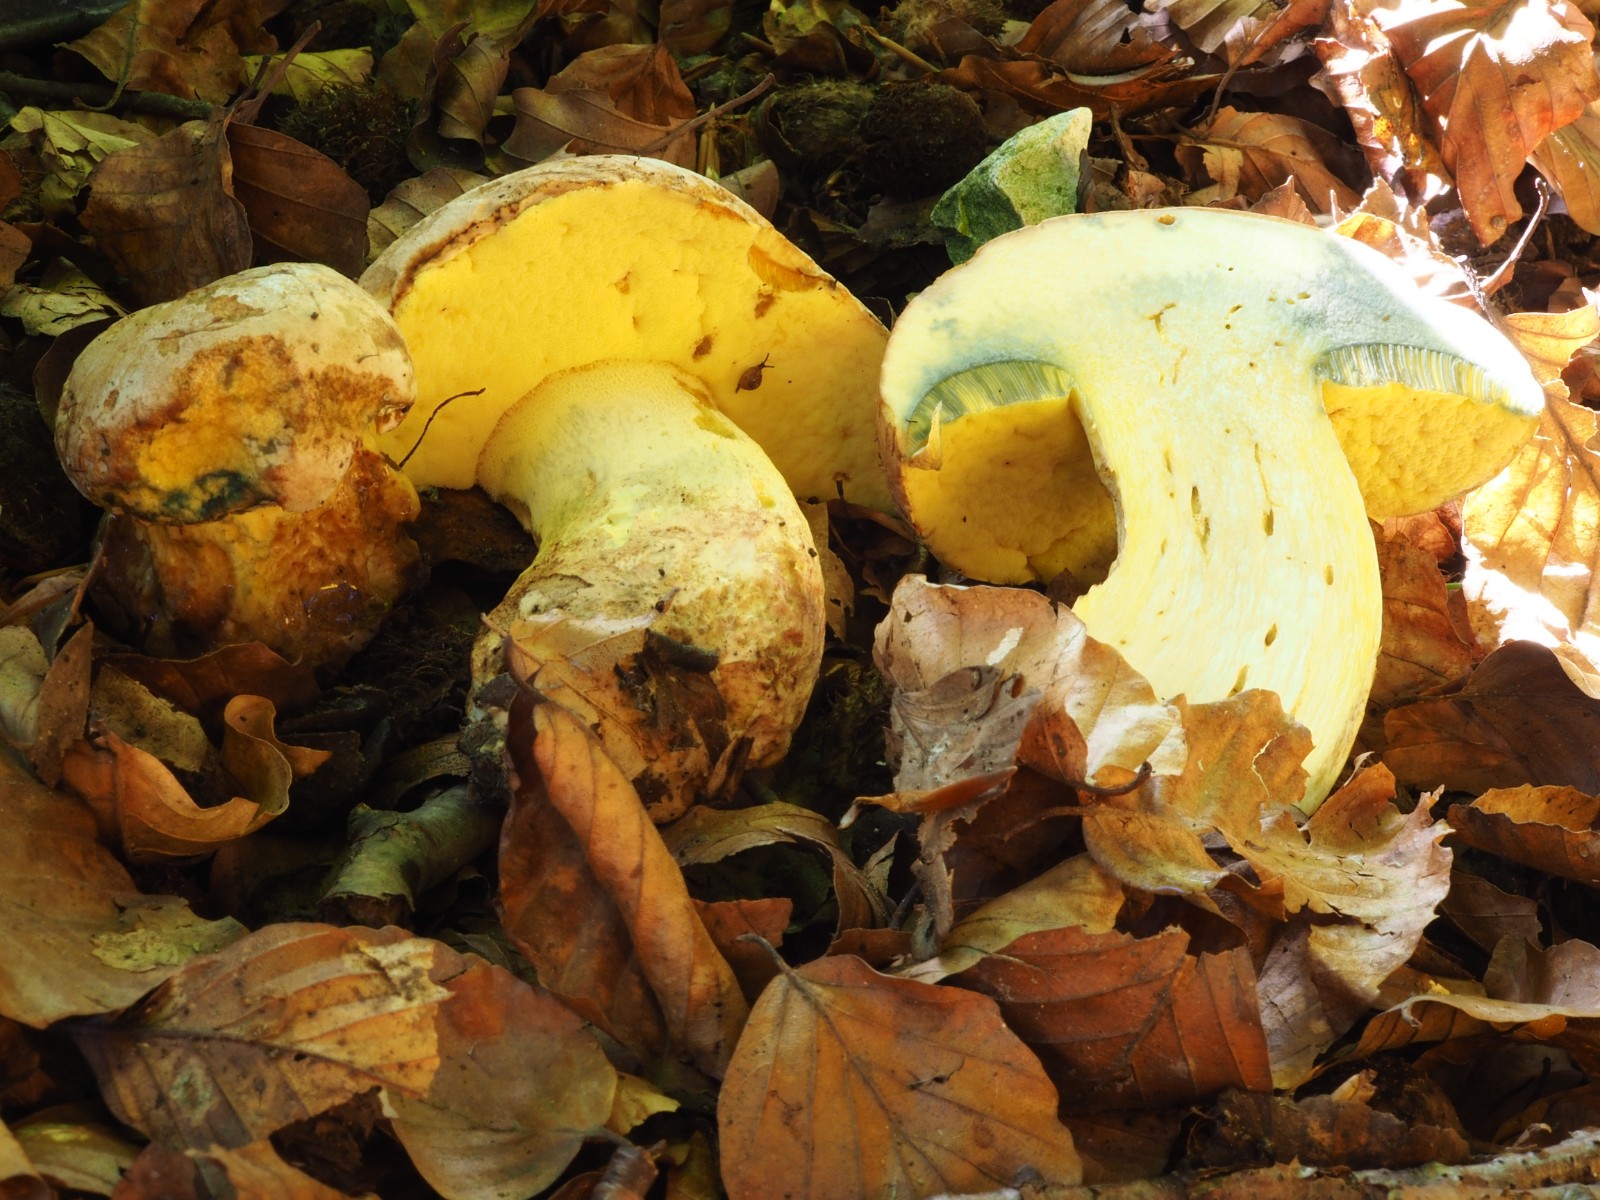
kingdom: Fungi
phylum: Basidiomycota
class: Agaricomycetes
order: Boletales
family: Boletaceae
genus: Caloboletus
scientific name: Caloboletus radicans
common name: rod-rørhat
